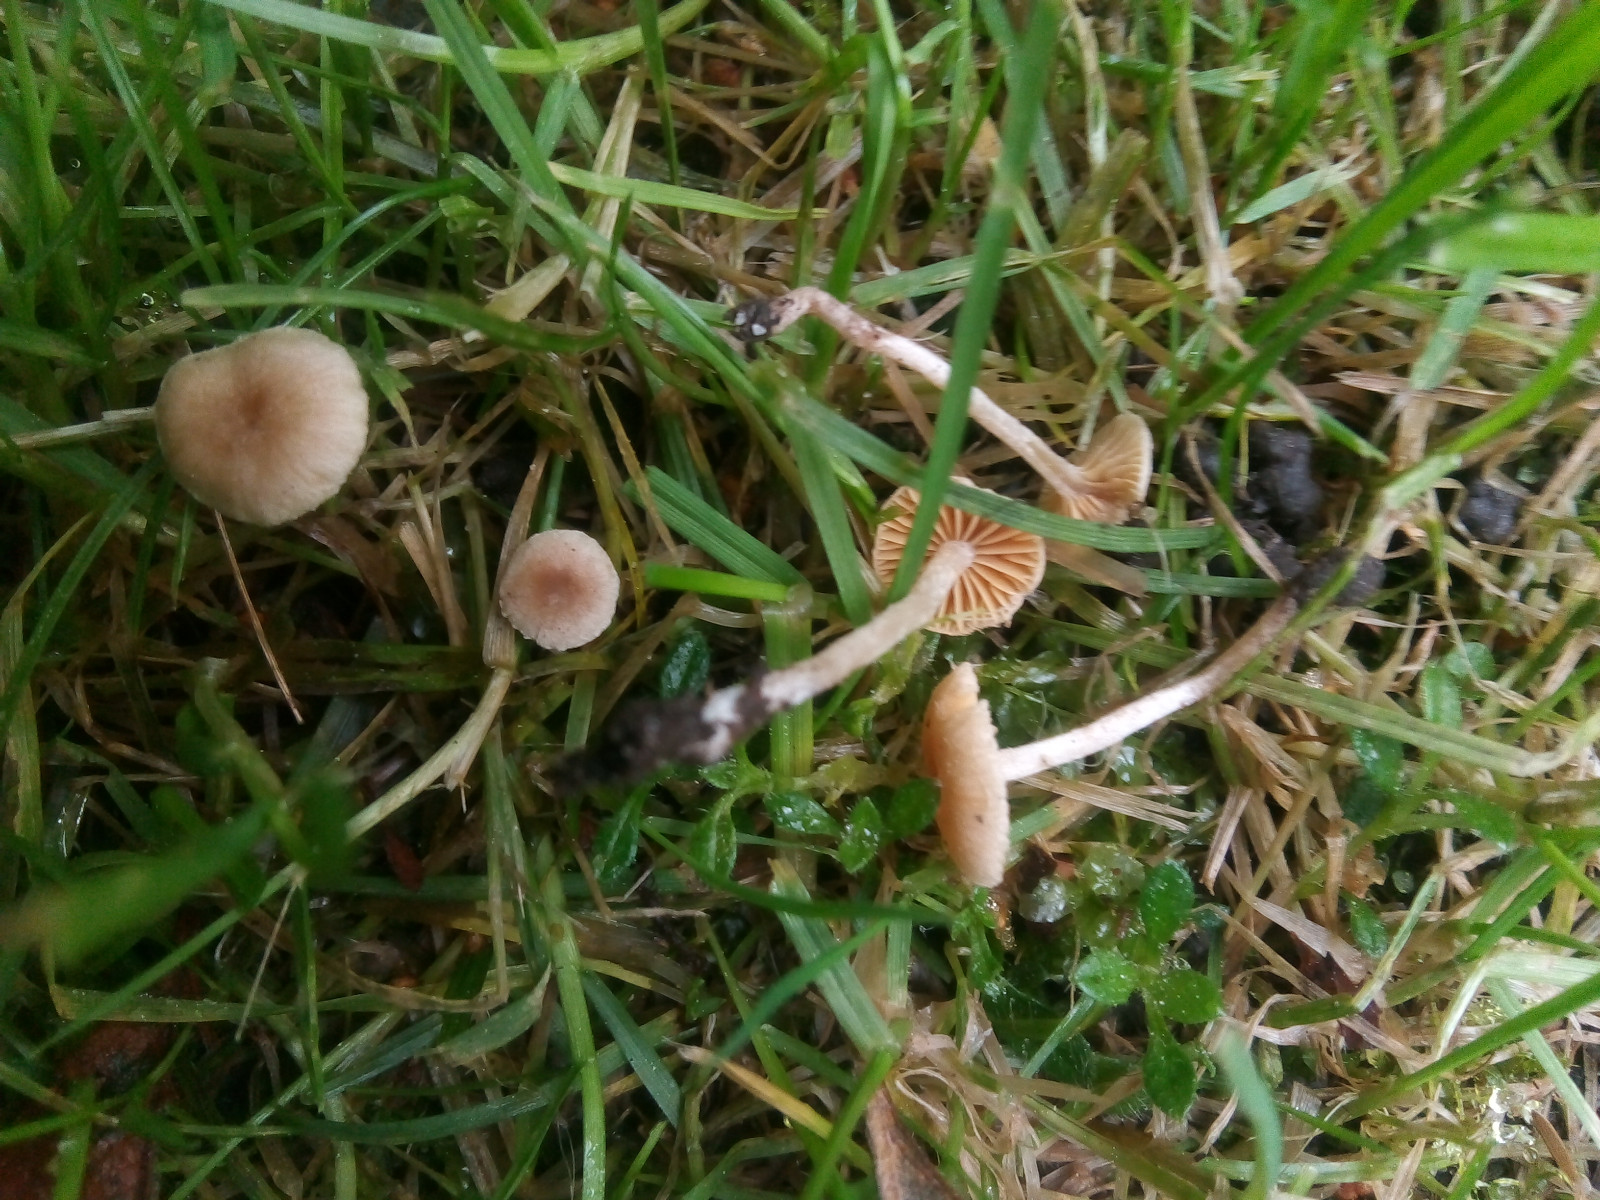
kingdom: Fungi
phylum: Basidiomycota
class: Agaricomycetes
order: Agaricales
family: Tubariaceae
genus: Tubaria
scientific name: Tubaria dispersa
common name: tjørne-fnughat
